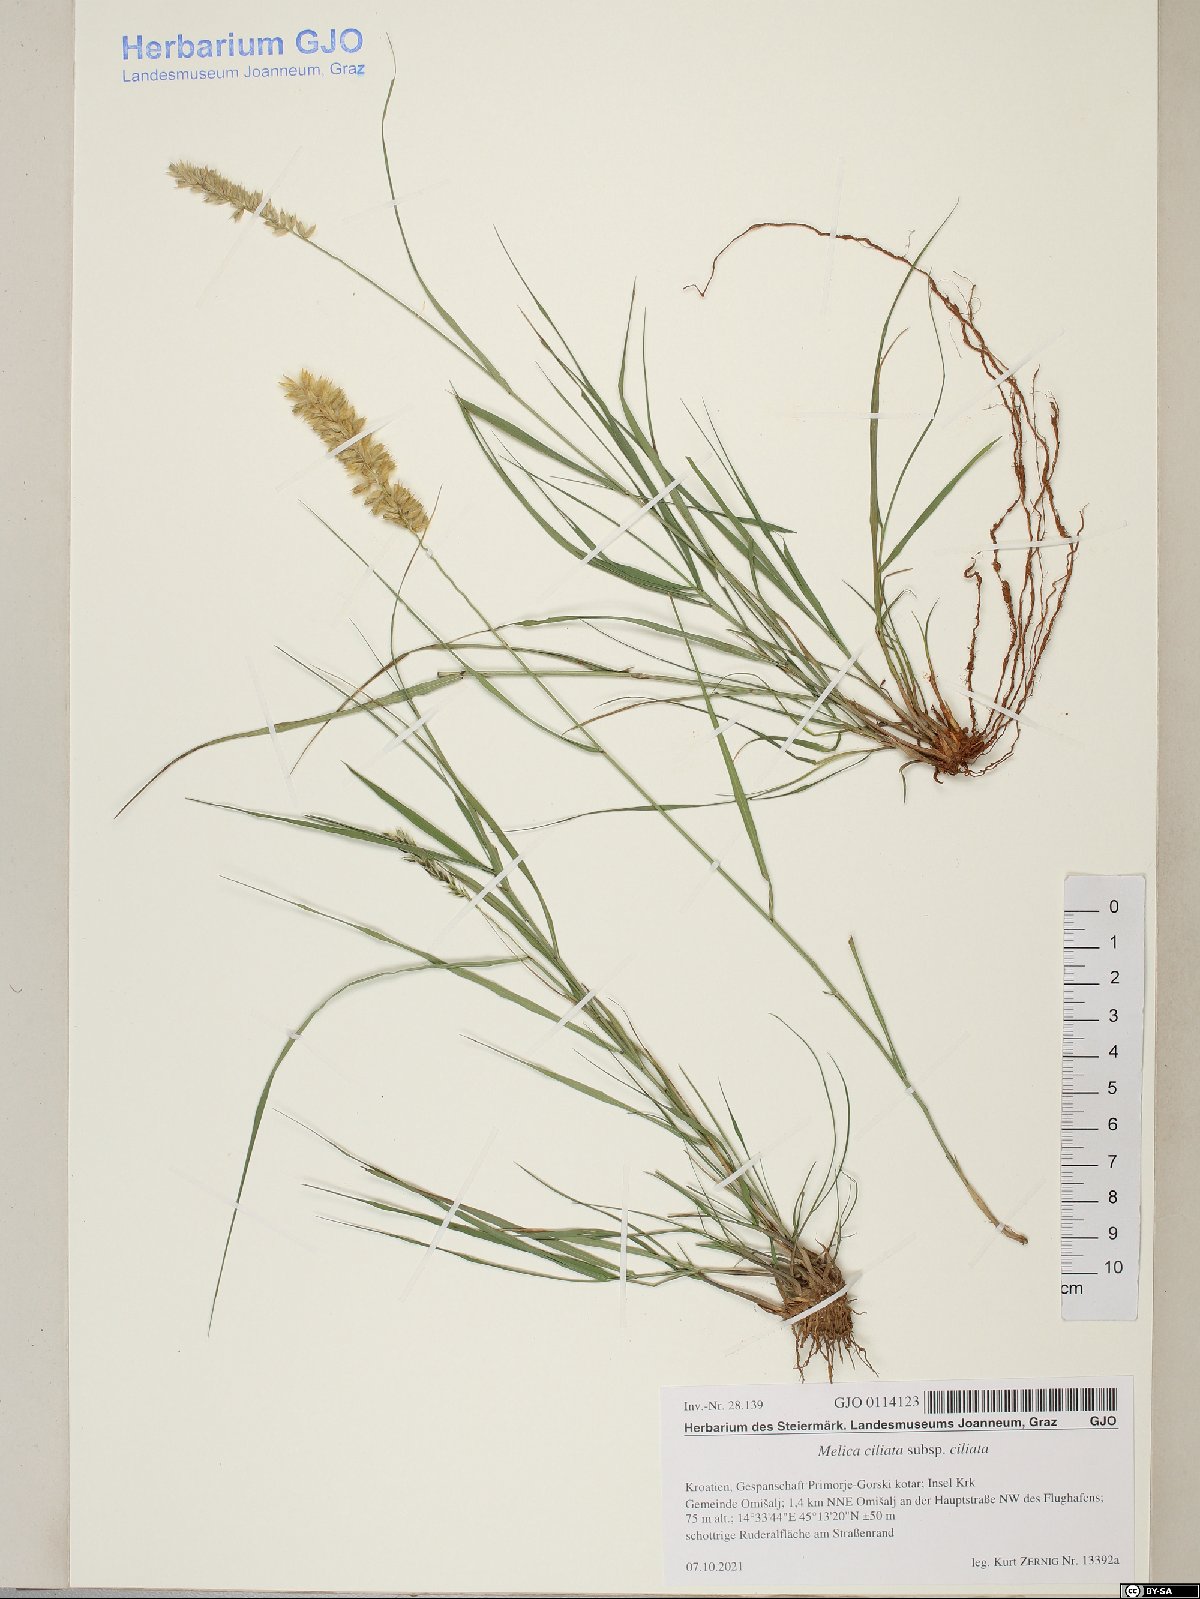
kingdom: Plantae
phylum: Tracheophyta
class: Liliopsida
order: Poales
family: Poaceae
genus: Melica
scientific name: Melica ciliata
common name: Hairy melicgrass
